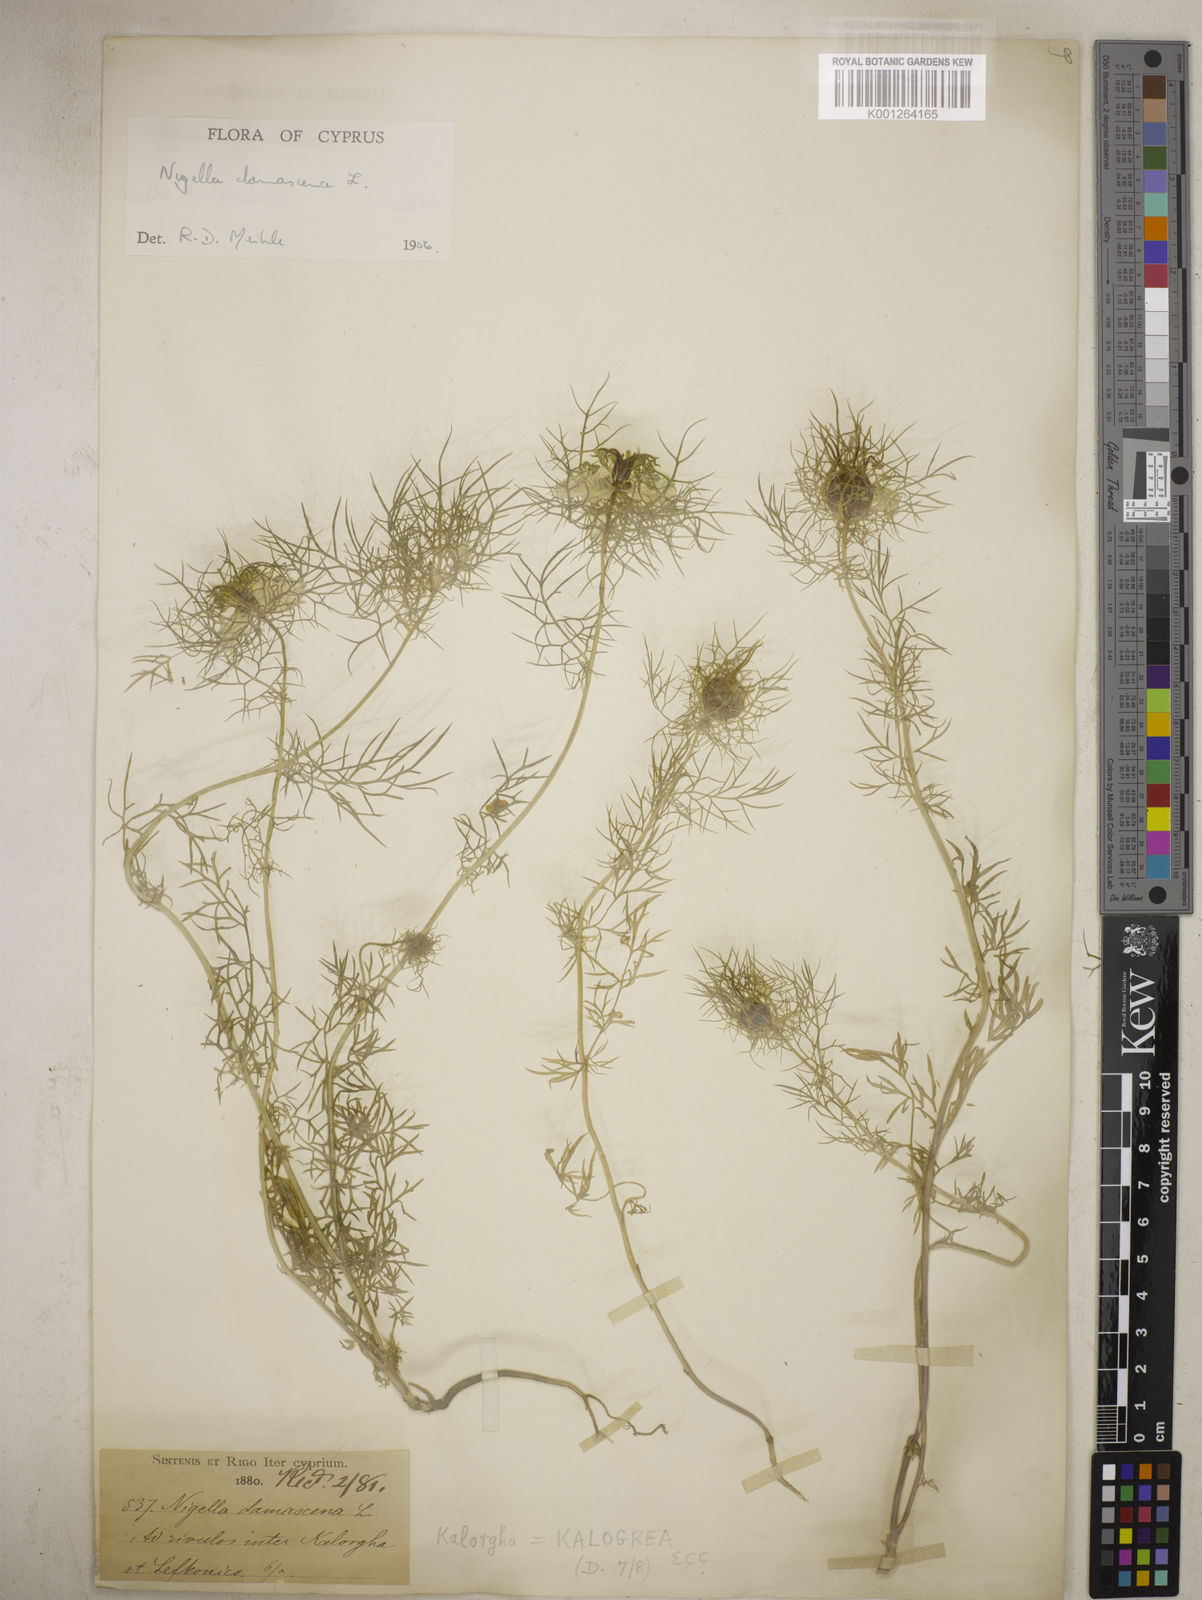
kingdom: Plantae
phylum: Tracheophyta
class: Magnoliopsida
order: Ranunculales
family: Ranunculaceae
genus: Nigella
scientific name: Nigella damascena
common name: Love-in-a-mist
